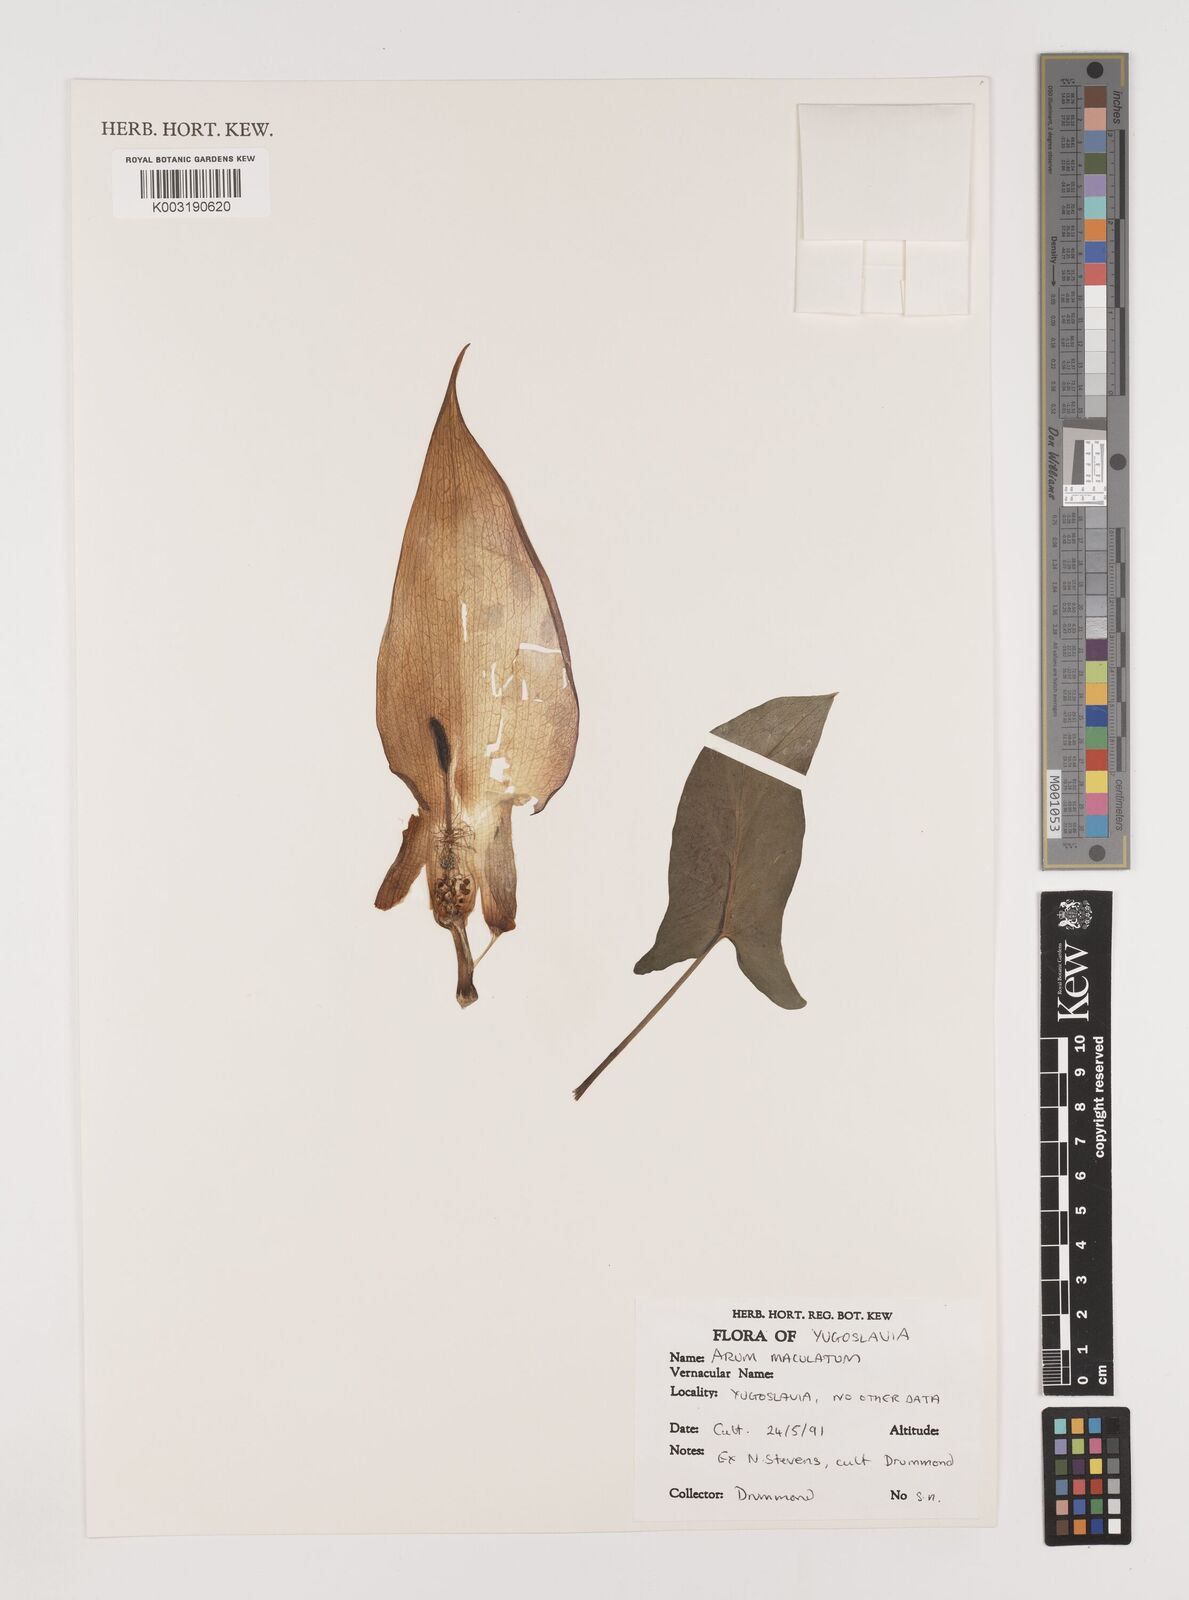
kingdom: Plantae
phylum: Tracheophyta
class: Liliopsida
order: Alismatales
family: Araceae
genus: Arum
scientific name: Arum maculatum
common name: Lords-and-ladies
